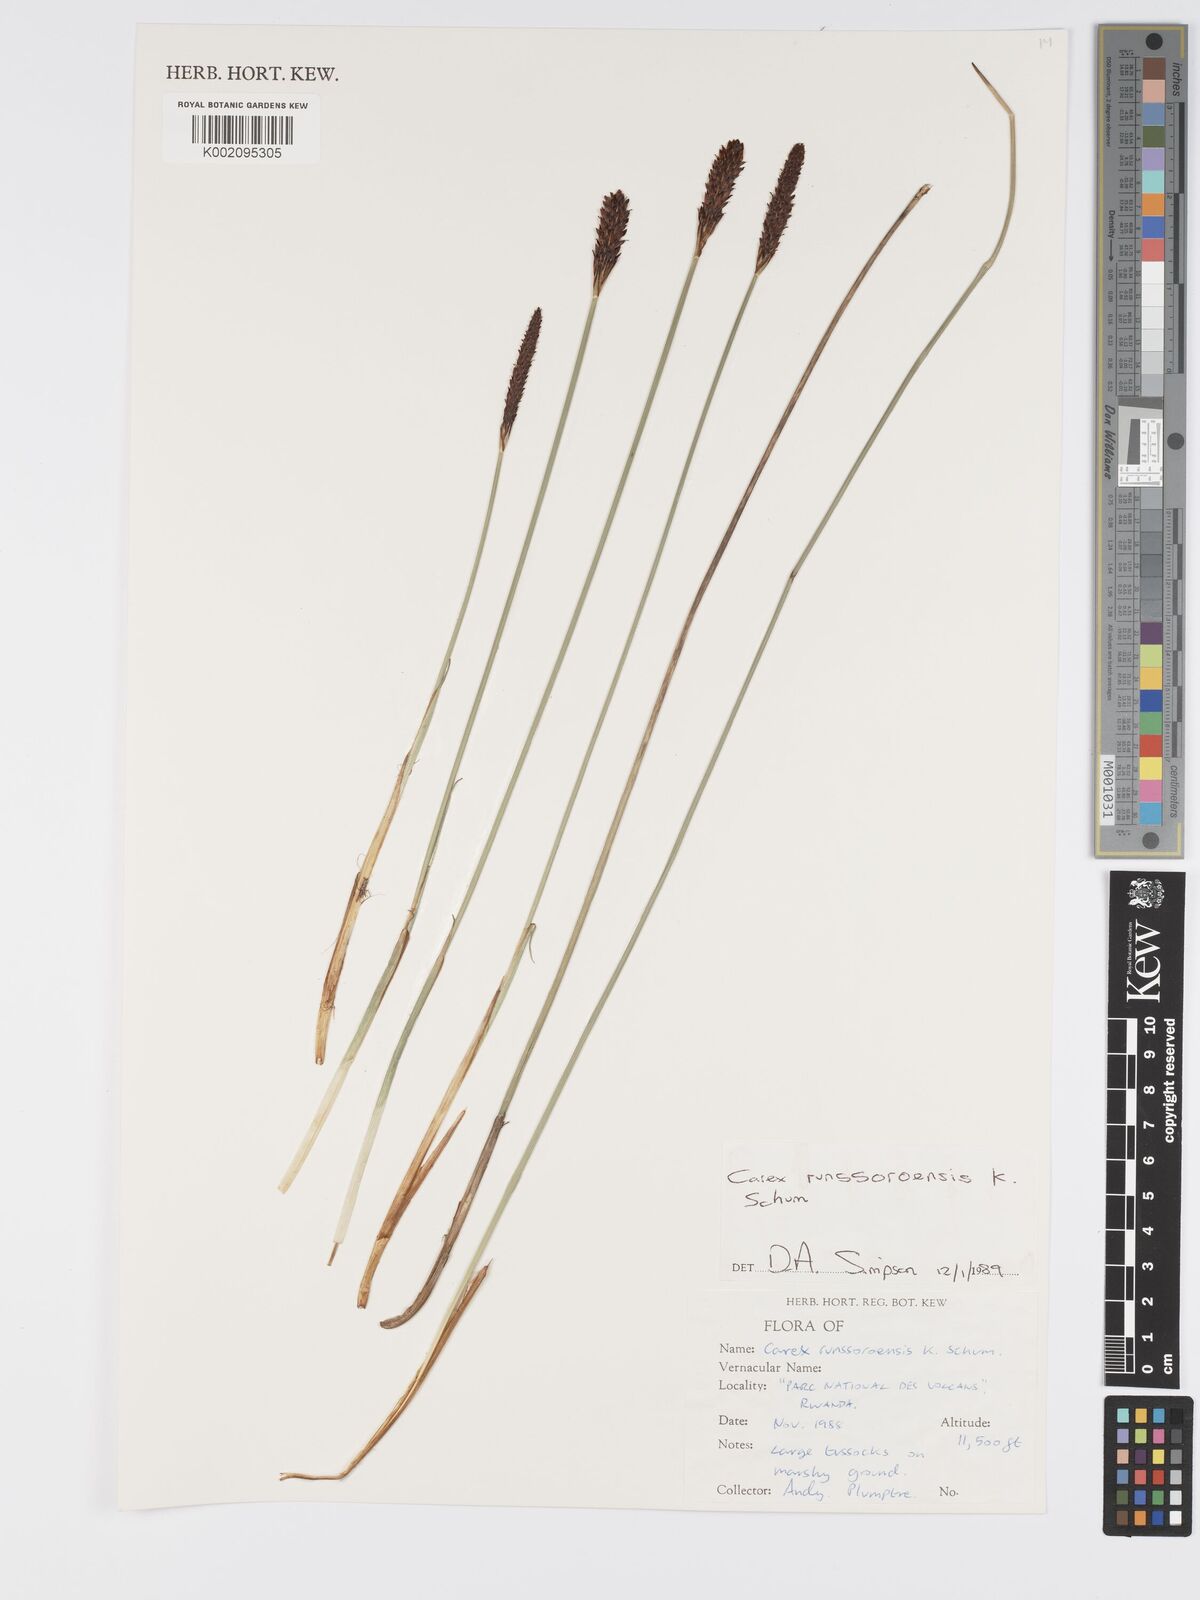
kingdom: Plantae
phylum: Tracheophyta
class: Liliopsida
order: Poales
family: Cyperaceae
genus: Carex
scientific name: Carex runssoroensis
